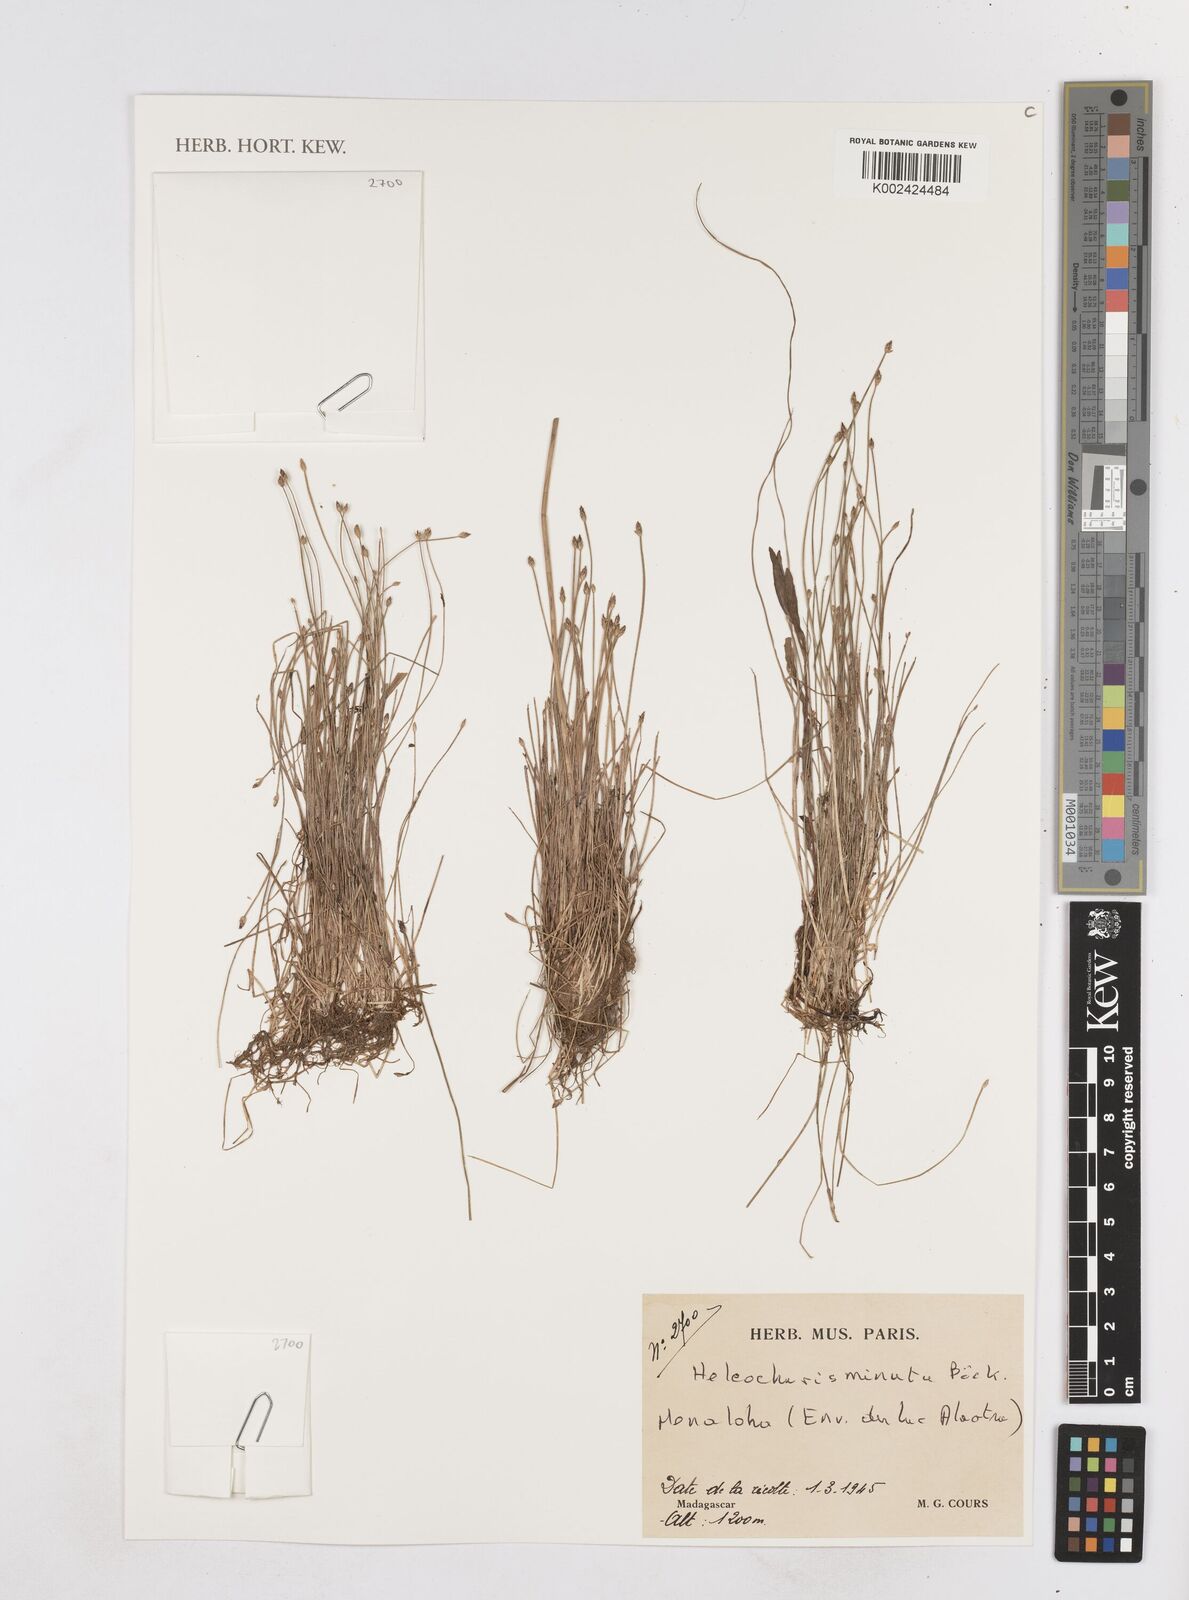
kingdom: Plantae
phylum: Tracheophyta
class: Liliopsida
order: Poales
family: Cyperaceae
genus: Eleocharis
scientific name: Eleocharis minuta
